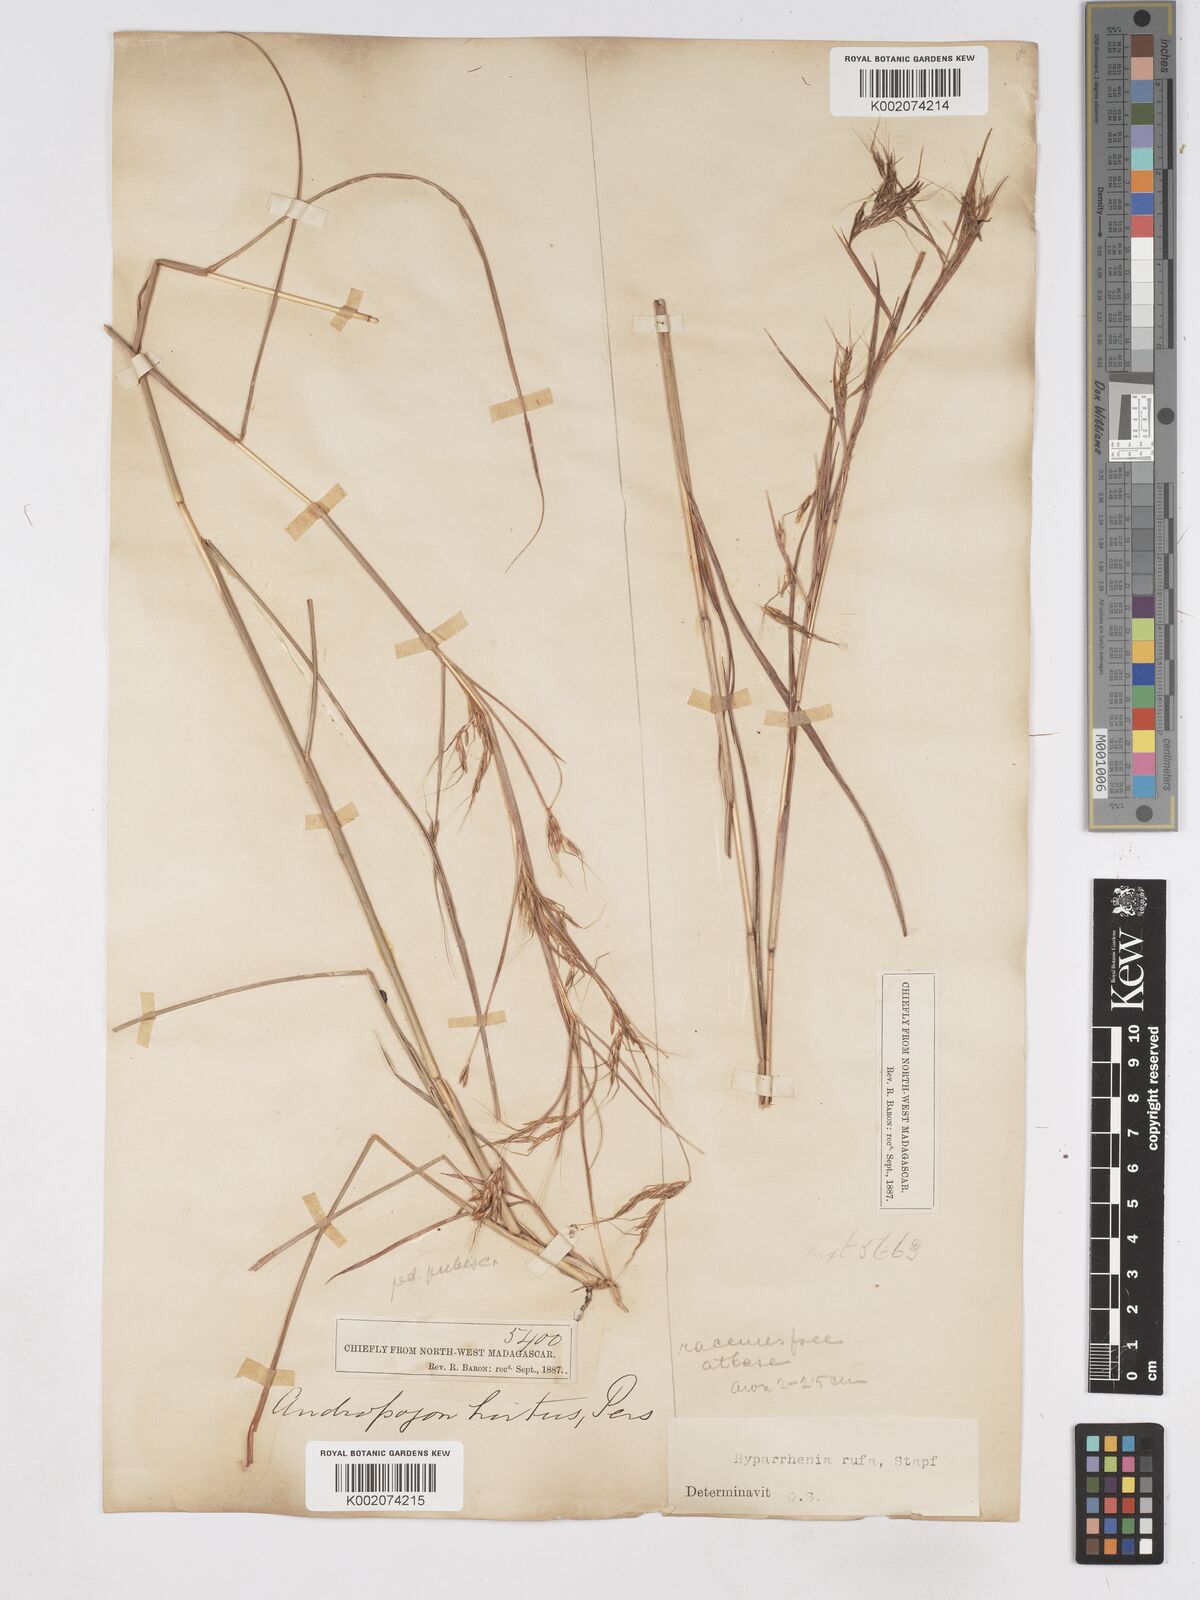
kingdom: Plantae
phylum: Tracheophyta
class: Liliopsida
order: Poales
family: Poaceae
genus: Hyparrhenia
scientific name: Hyparrhenia rufa
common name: Jaraguagrass
